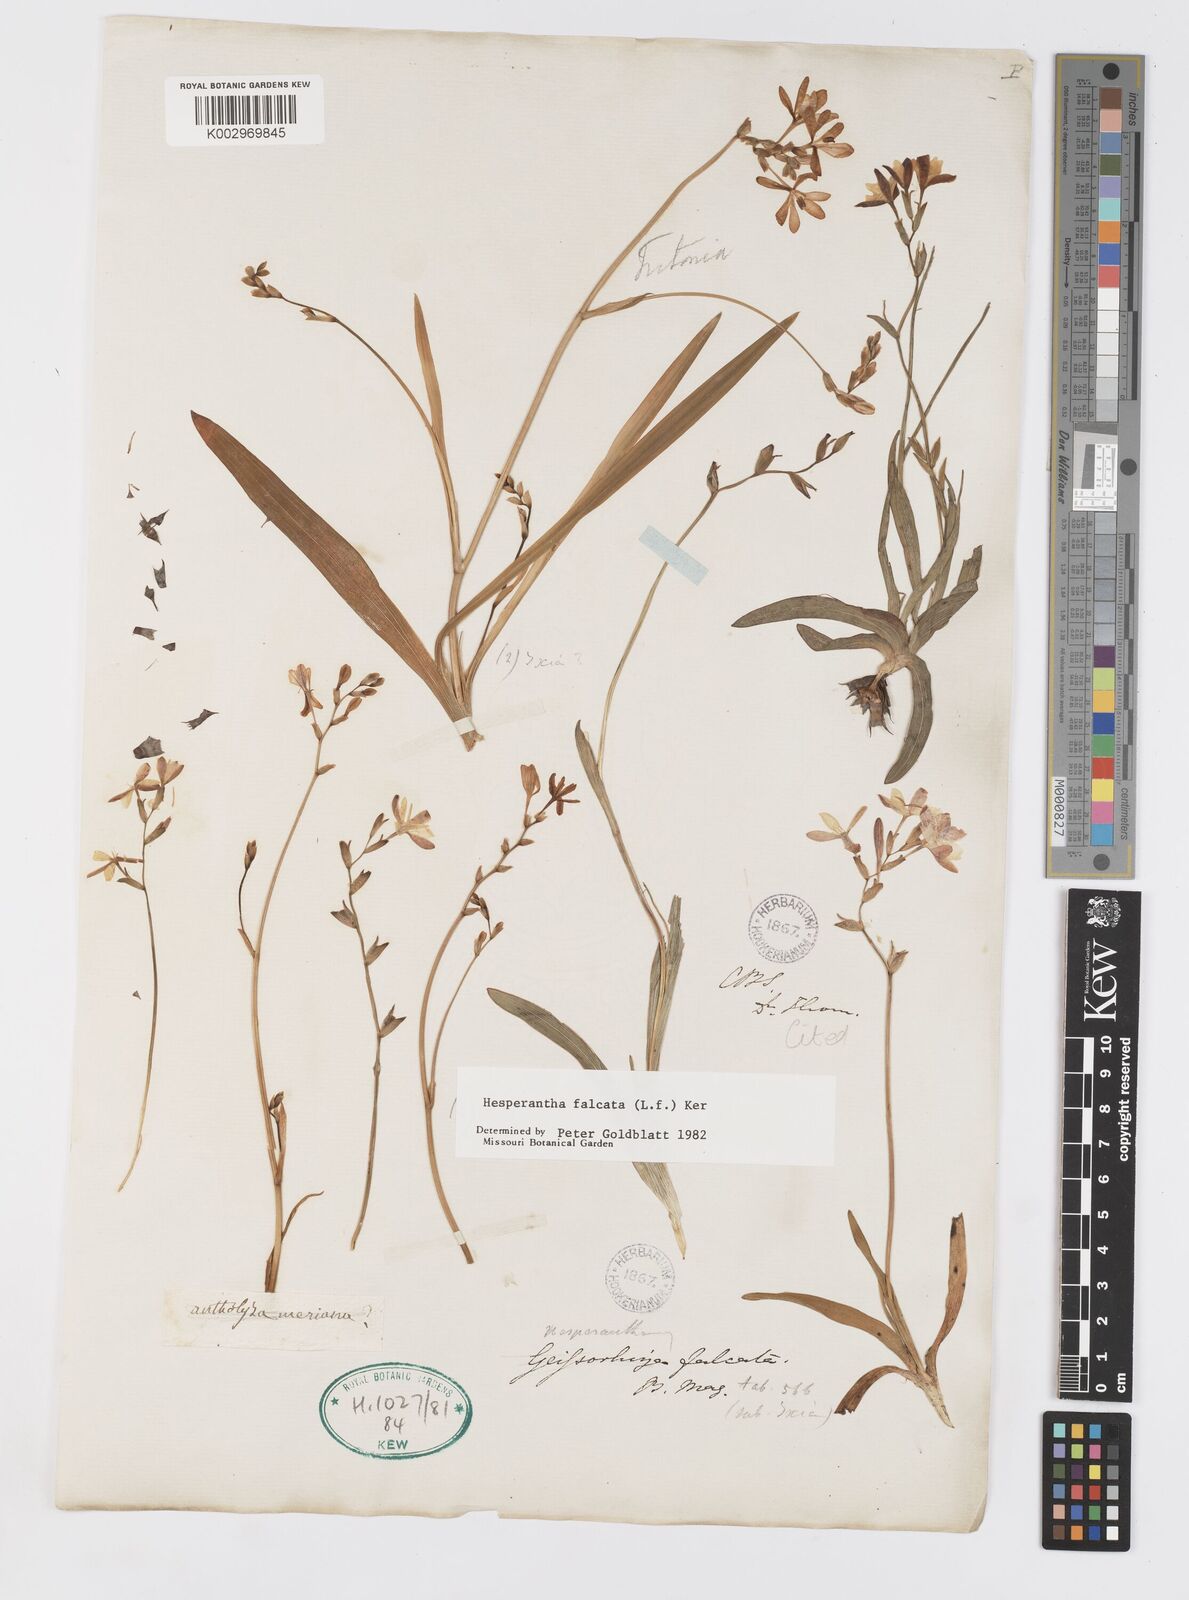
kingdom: Plantae
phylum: Tracheophyta
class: Liliopsida
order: Asparagales
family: Iridaceae
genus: Hesperantha
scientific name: Hesperantha falcata
